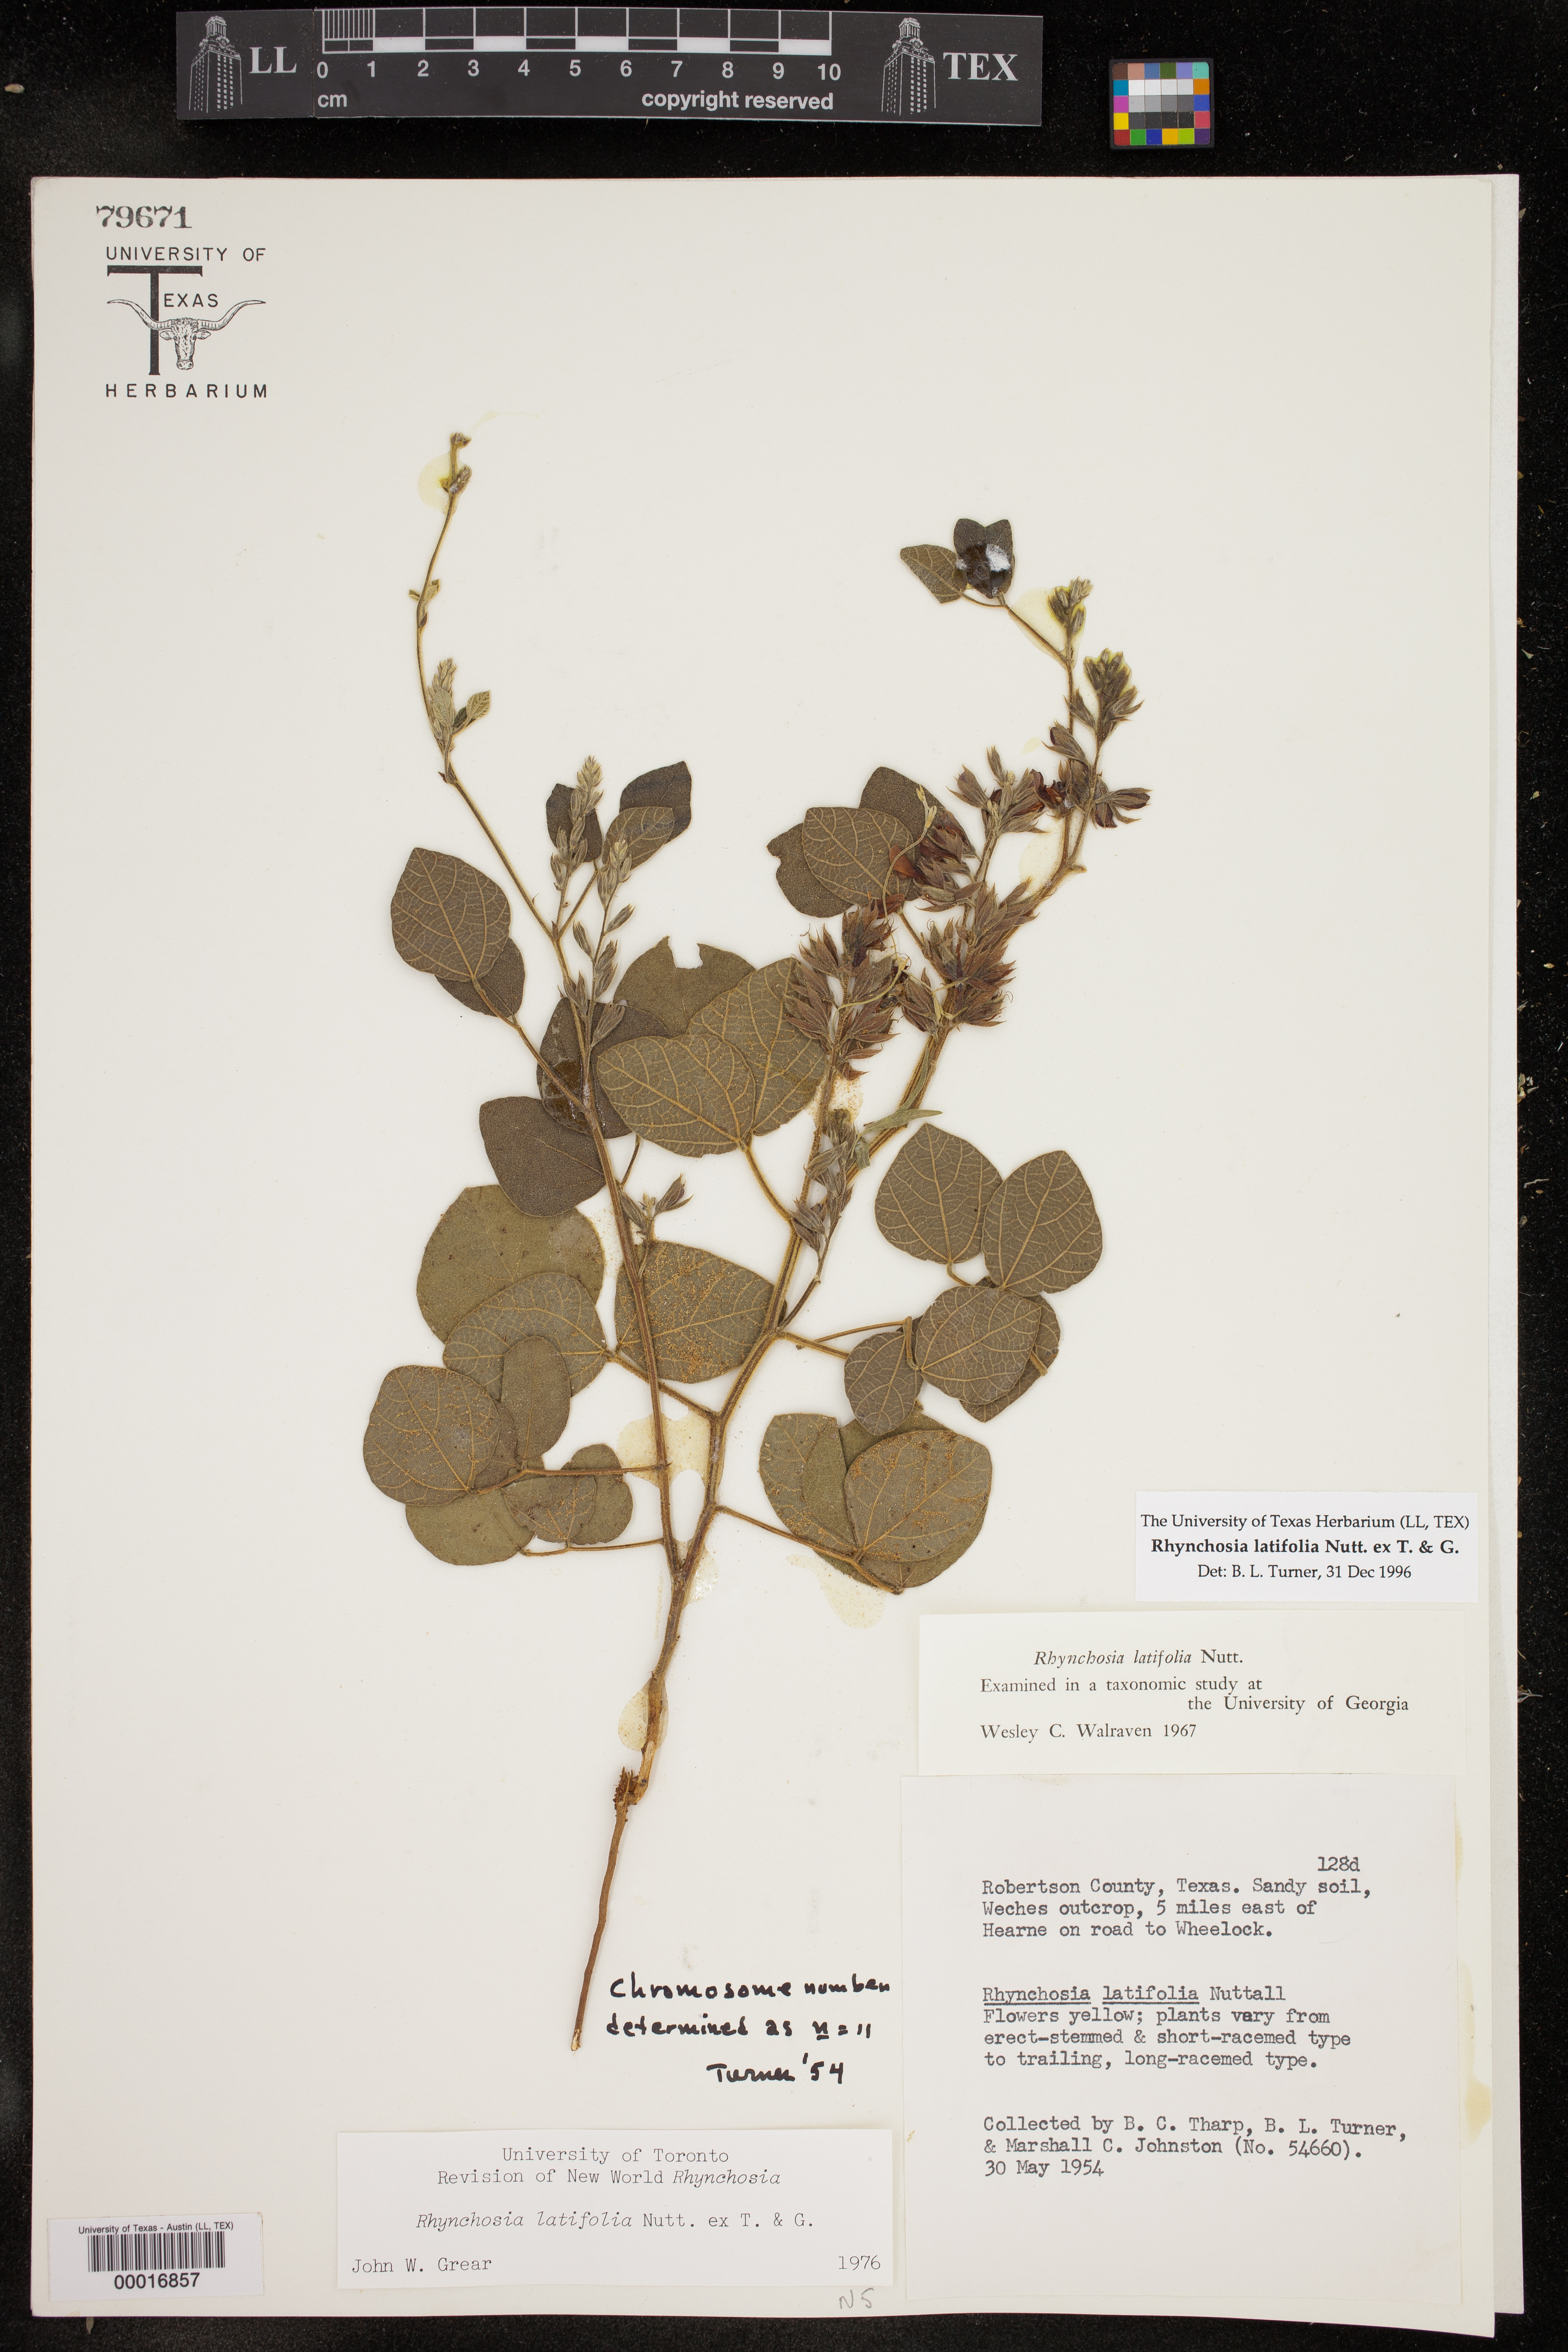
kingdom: Plantae
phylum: Tracheophyta
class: Magnoliopsida
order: Fabales
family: Fabaceae
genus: Rhynchosia
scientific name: Rhynchosia latifolia
